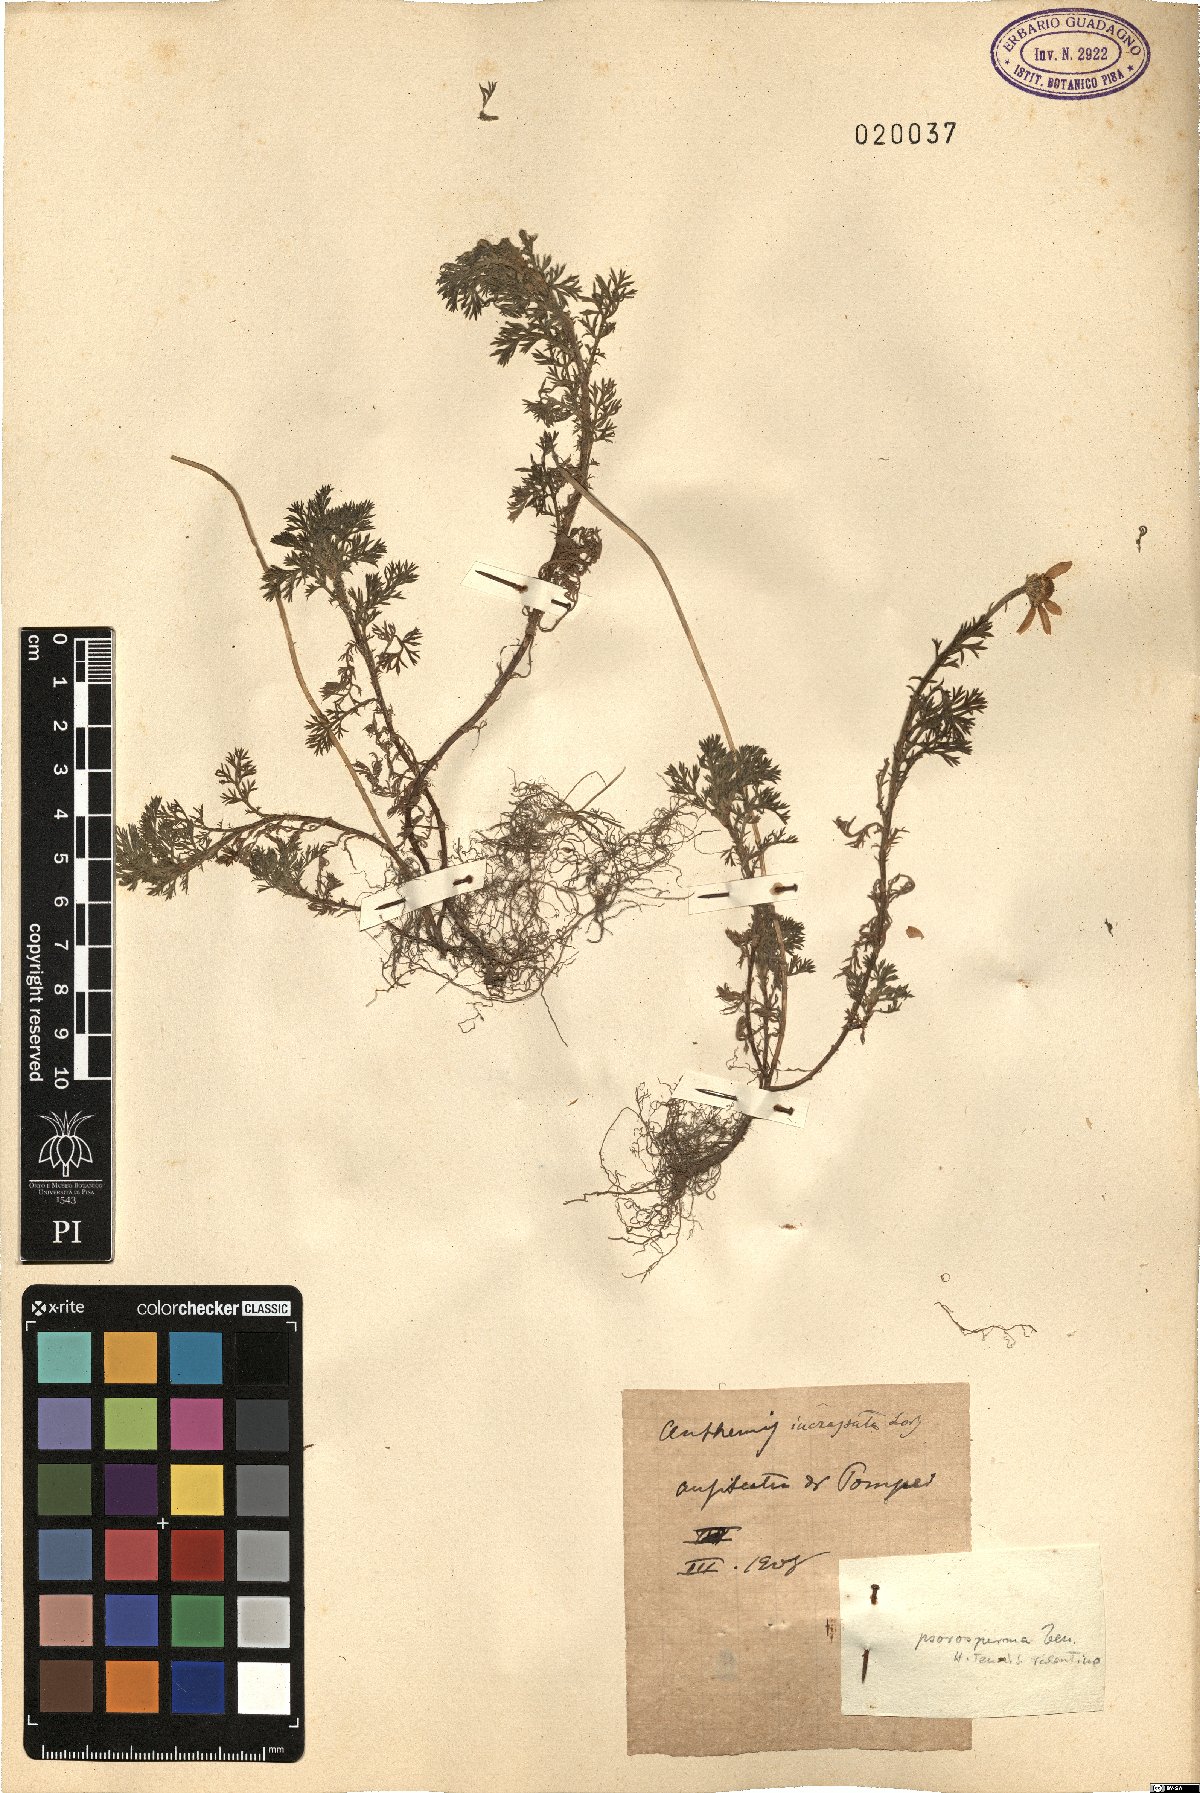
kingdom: Plantae
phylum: Tracheophyta
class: Magnoliopsida
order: Asterales
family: Asteraceae
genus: Anthemis
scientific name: Anthemis arvensis
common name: Corn chamomile
